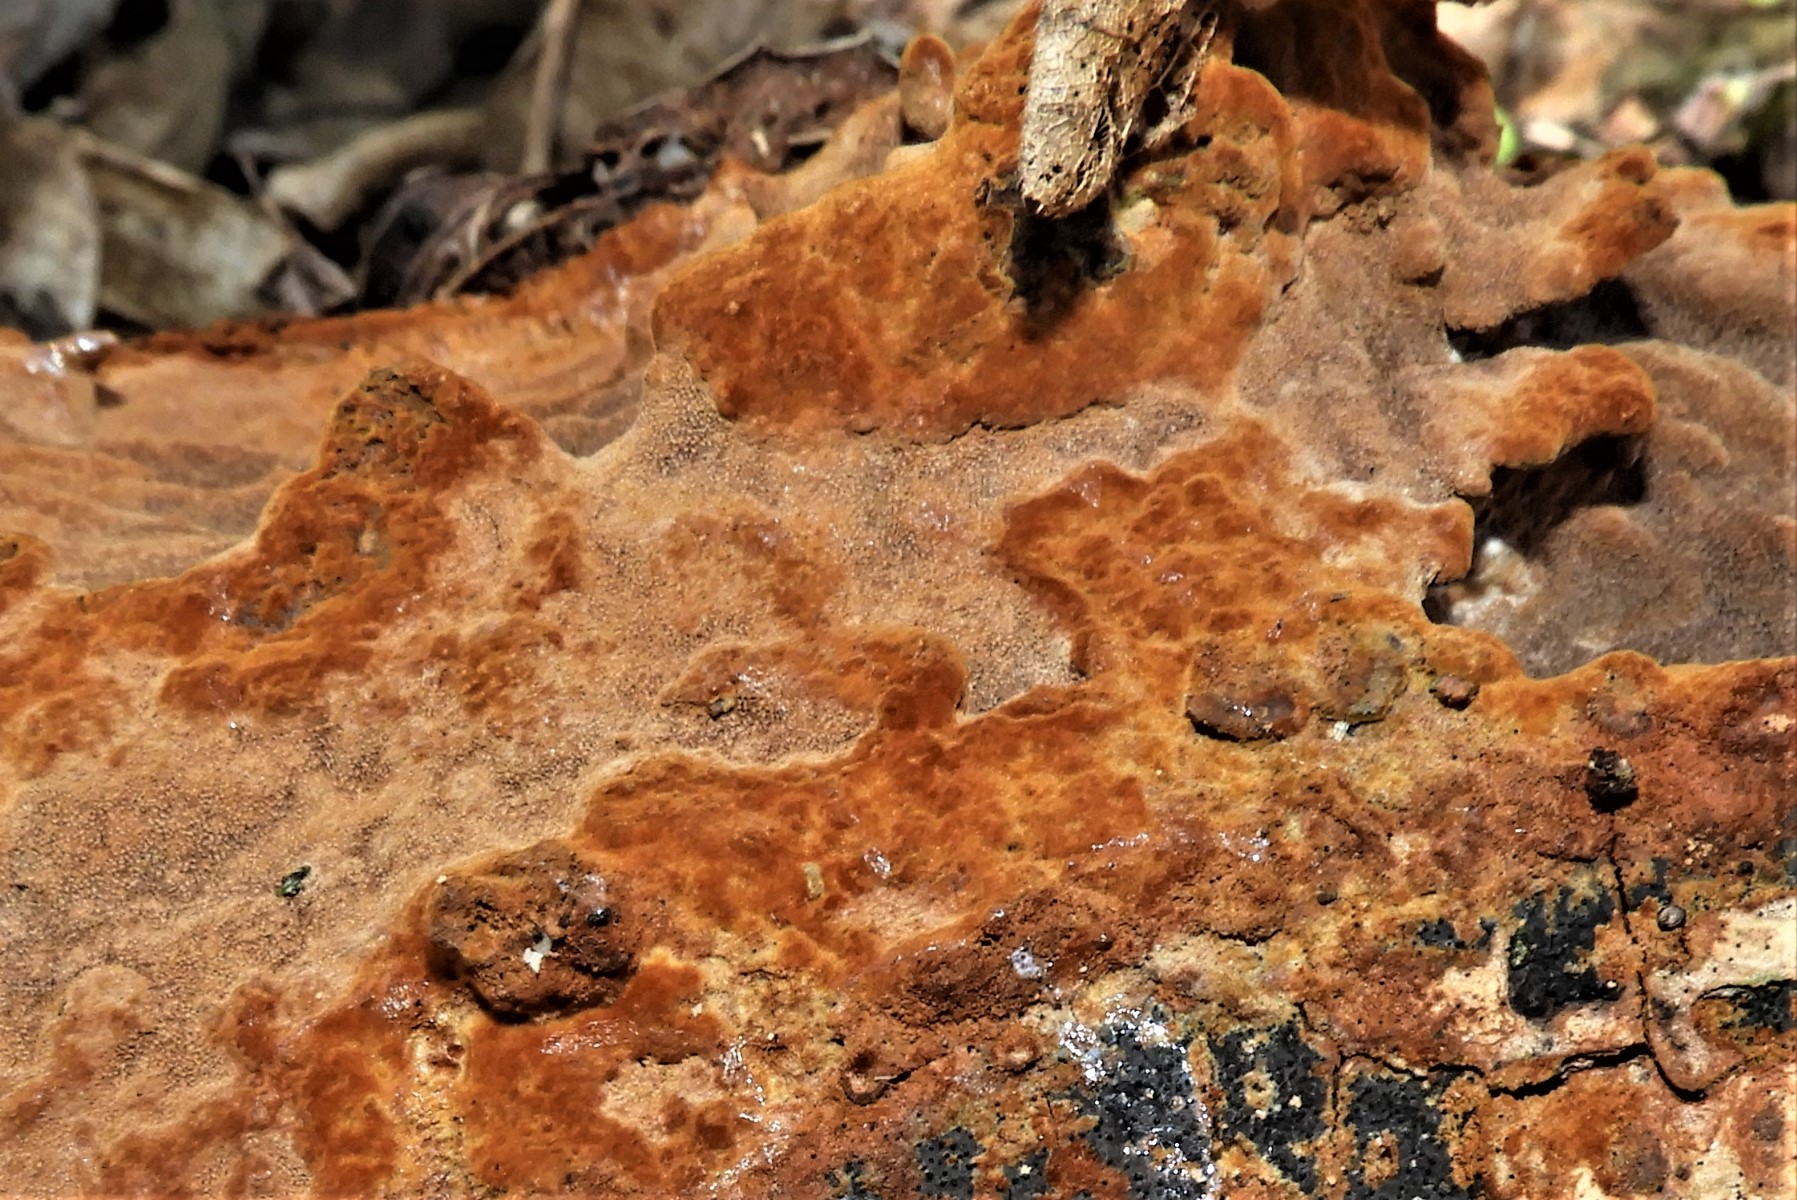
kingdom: Fungi
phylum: Basidiomycota
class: Agaricomycetes
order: Hymenochaetales
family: Hymenochaetaceae
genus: Fuscoporia
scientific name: Fuscoporia ferrea
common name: skorpe-ildporesvamp
